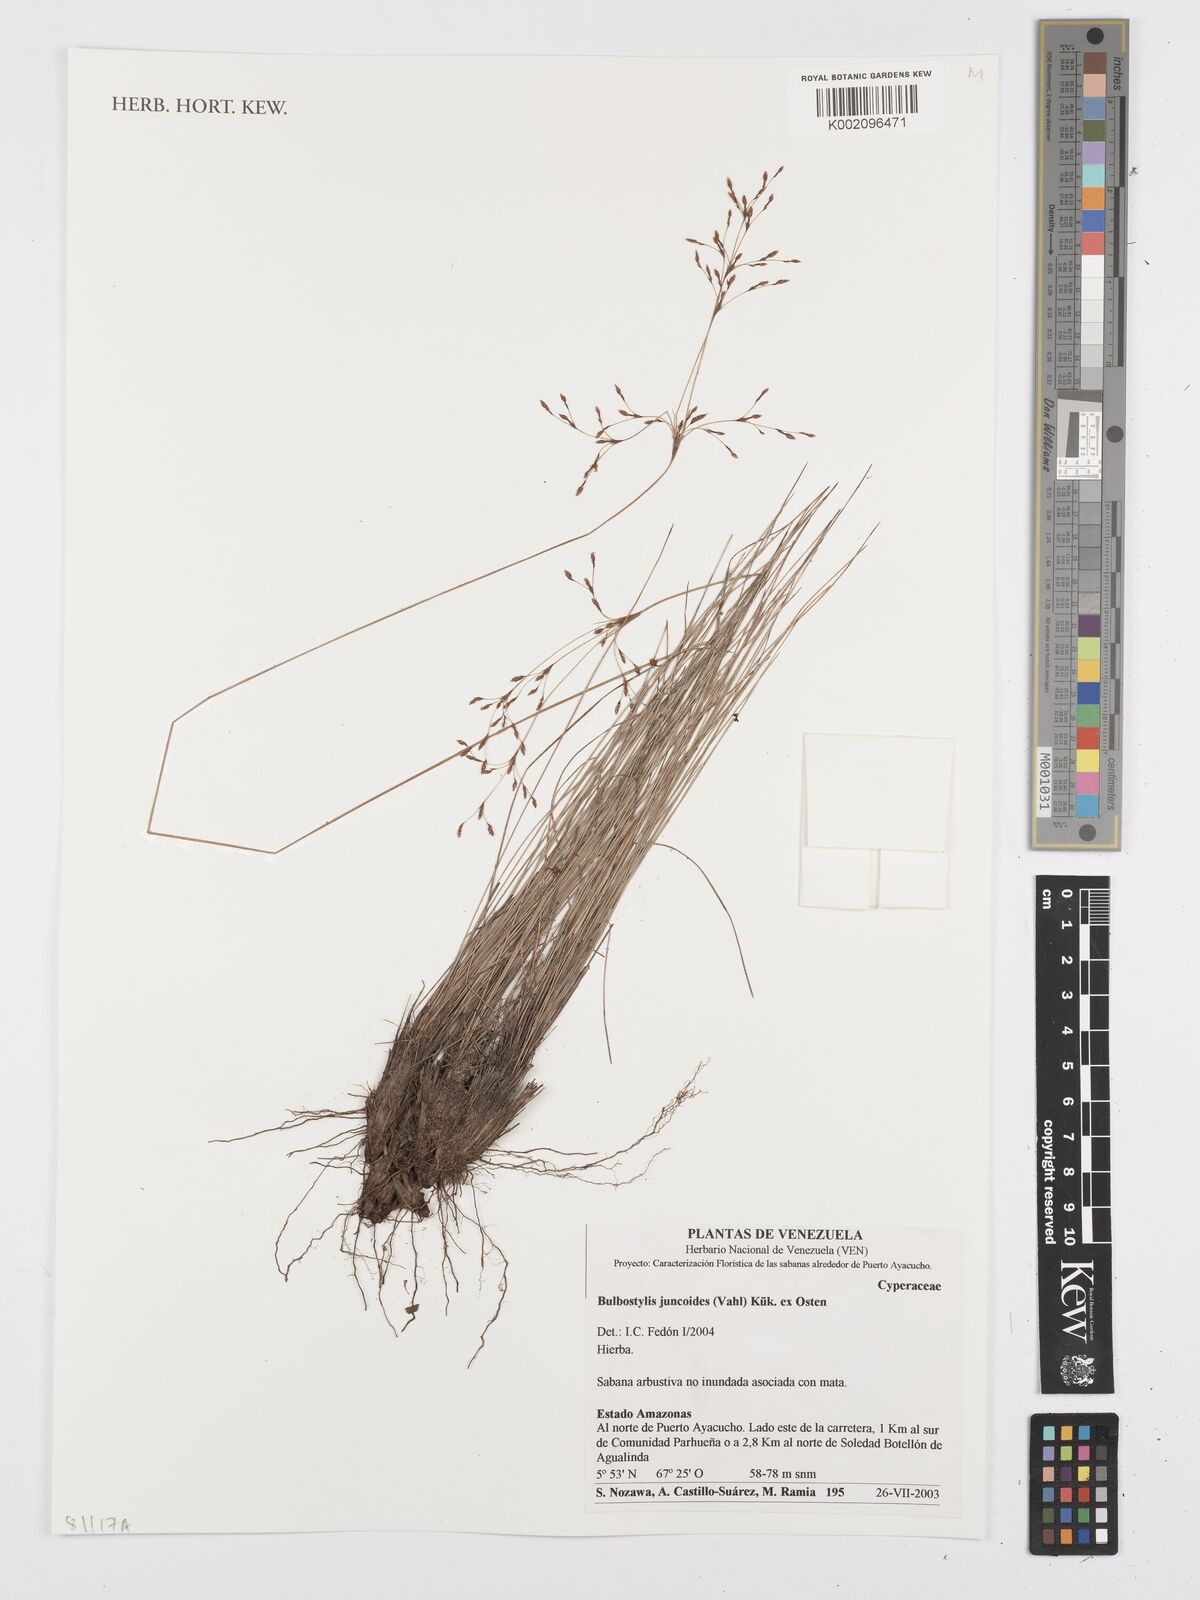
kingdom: Plantae
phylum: Tracheophyta
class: Liliopsida
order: Poales
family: Cyperaceae
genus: Bulbostylis
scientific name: Bulbostylis juncoides
